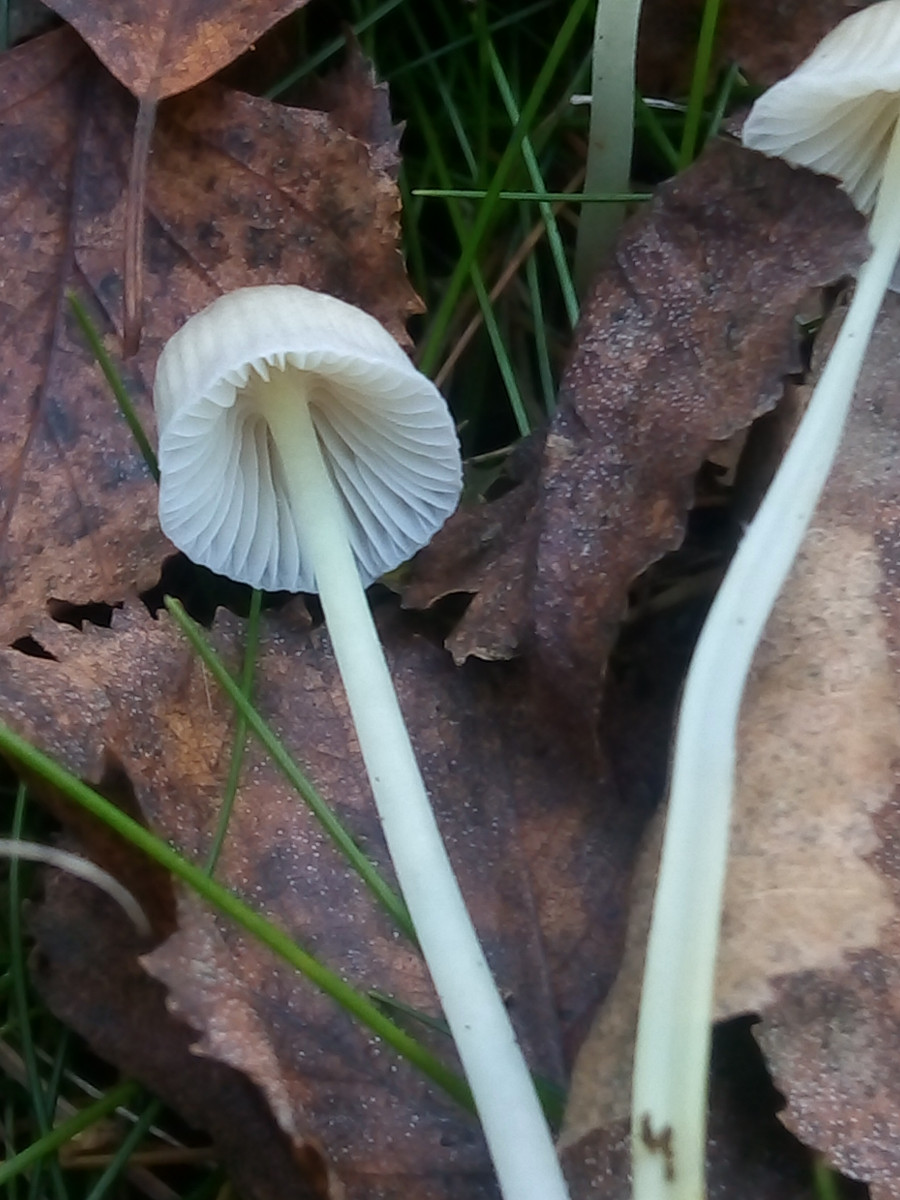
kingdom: Fungi
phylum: Basidiomycota
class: Agaricomycetes
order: Agaricales
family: Mycenaceae
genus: Mycena
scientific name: Mycena epipterygia
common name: gulstokket huesvamp
